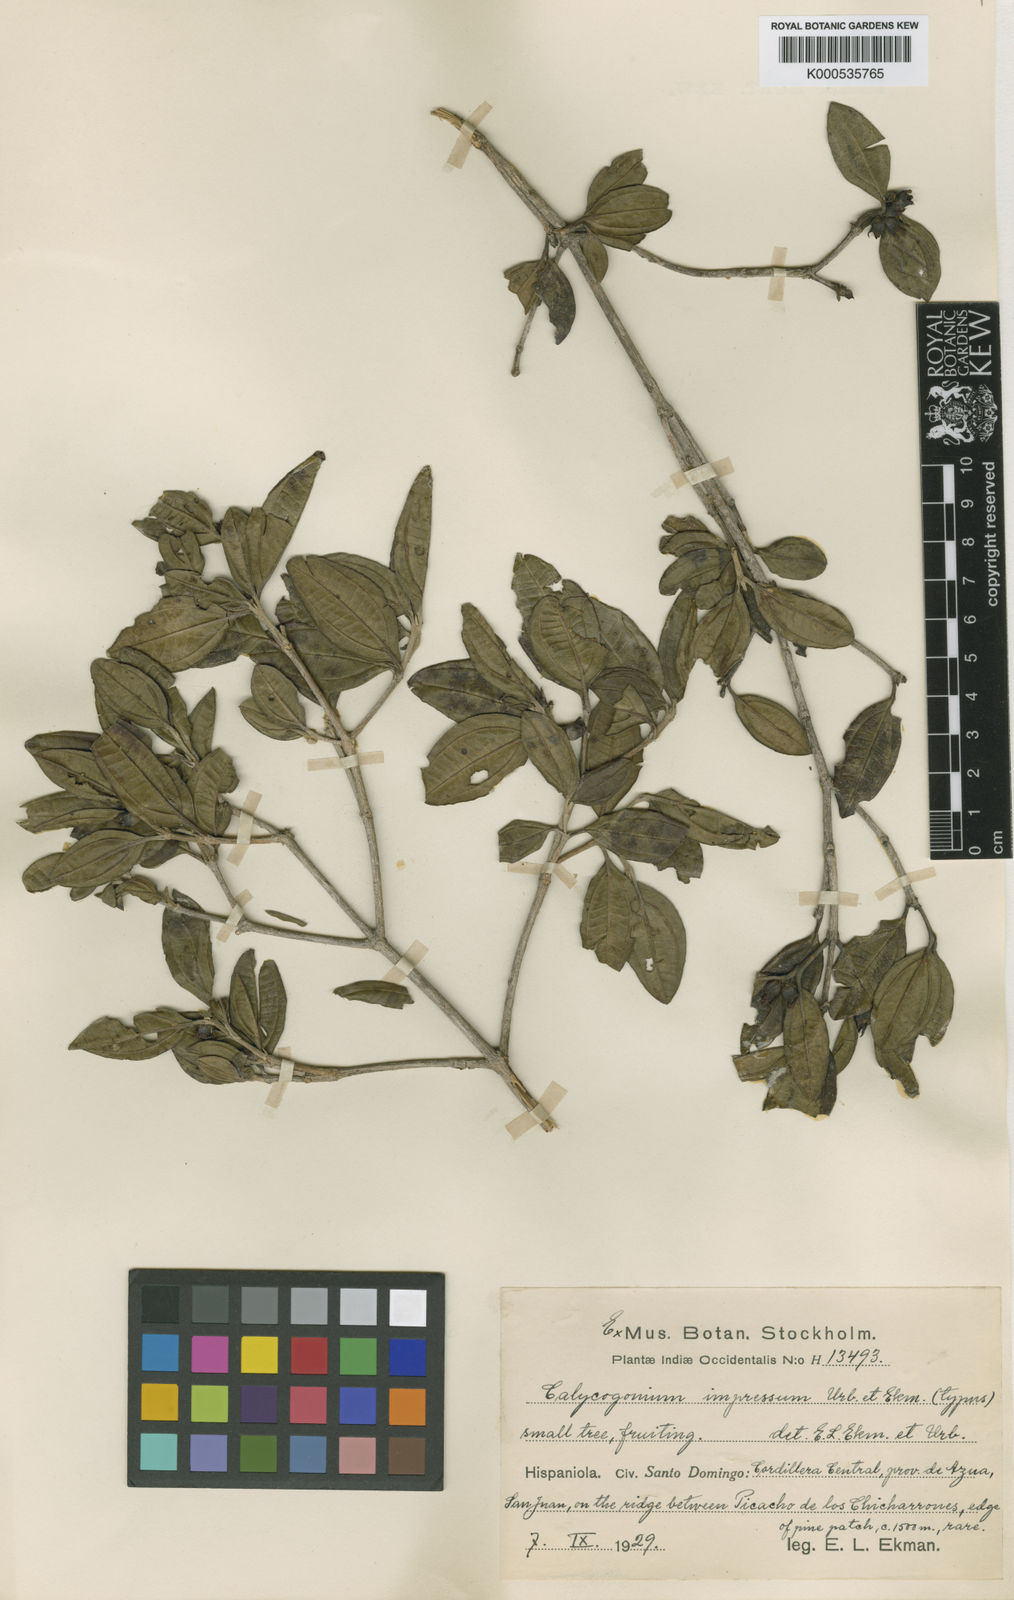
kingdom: Plantae
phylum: Tracheophyta
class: Magnoliopsida
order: Myrtales
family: Melastomataceae
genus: Miconia
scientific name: Miconia impressinervis
